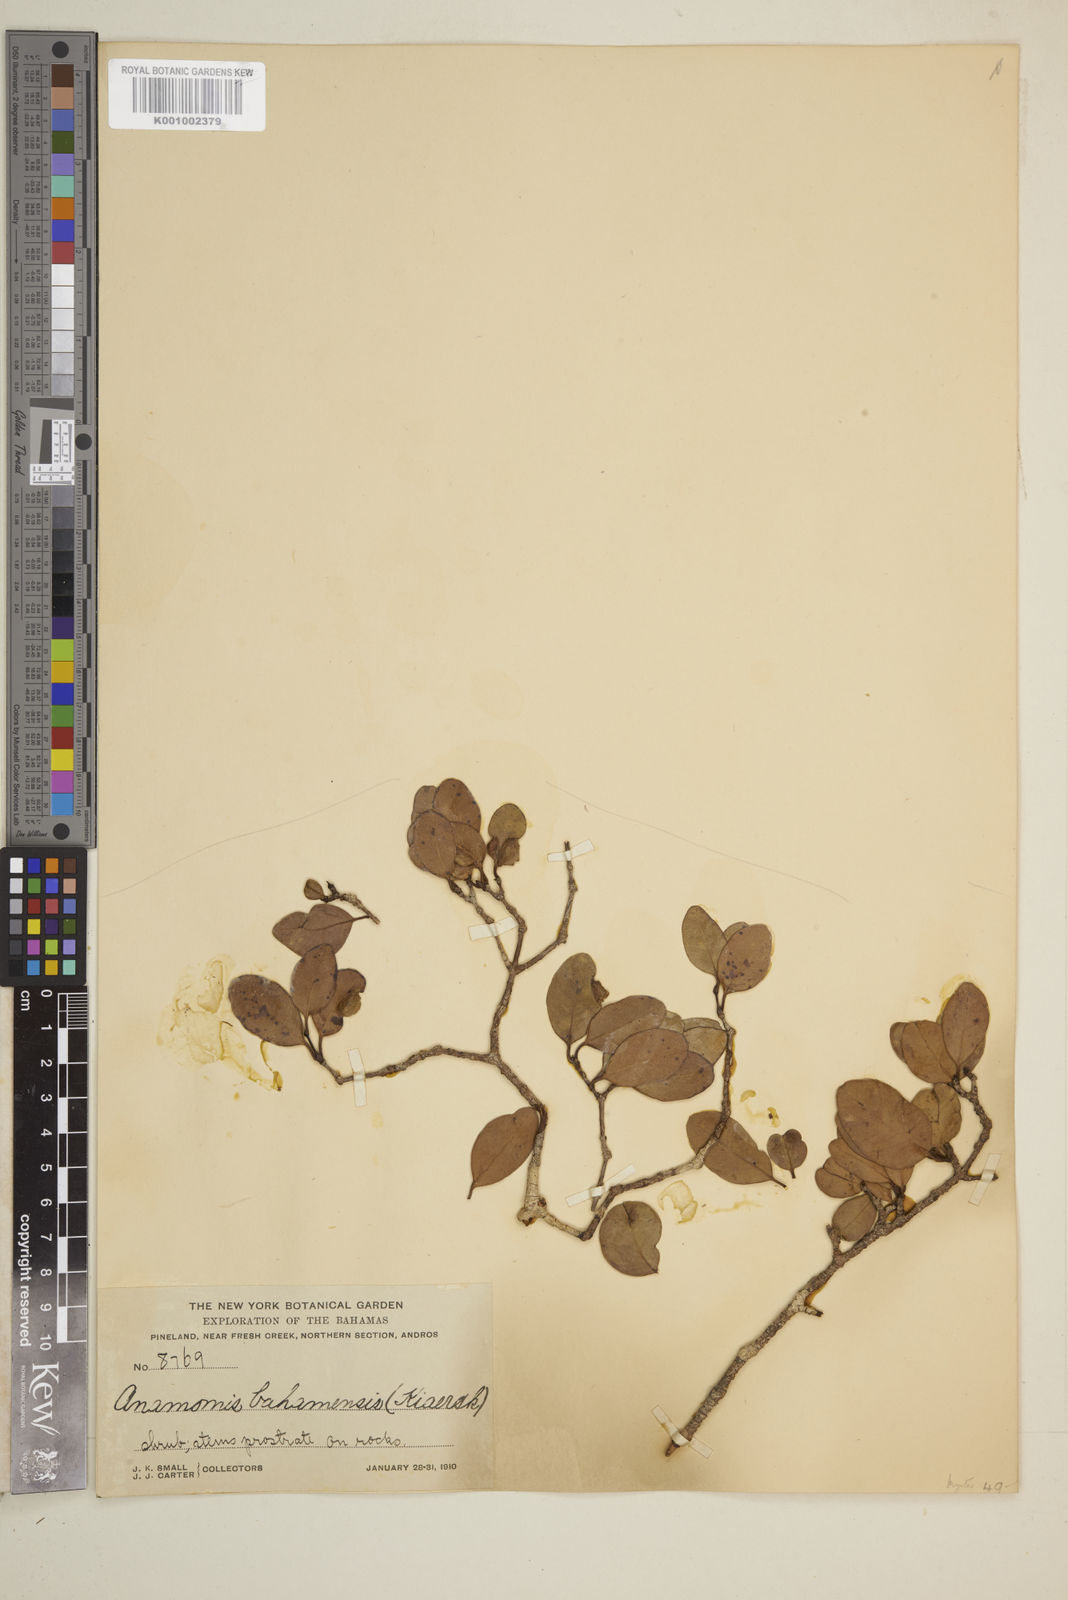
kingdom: Plantae
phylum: Tracheophyta
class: Magnoliopsida
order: Myrtales
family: Myrtaceae
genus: Mosiera
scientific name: Mosiera longipes
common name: Bahama stopper
